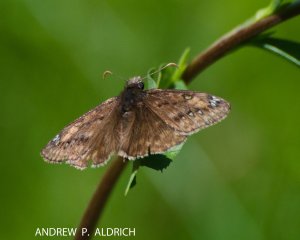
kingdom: Animalia
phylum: Arthropoda
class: Insecta
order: Lepidoptera
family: Hesperiidae
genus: Gesta
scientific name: Gesta
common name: Juvenal's Duskywing
